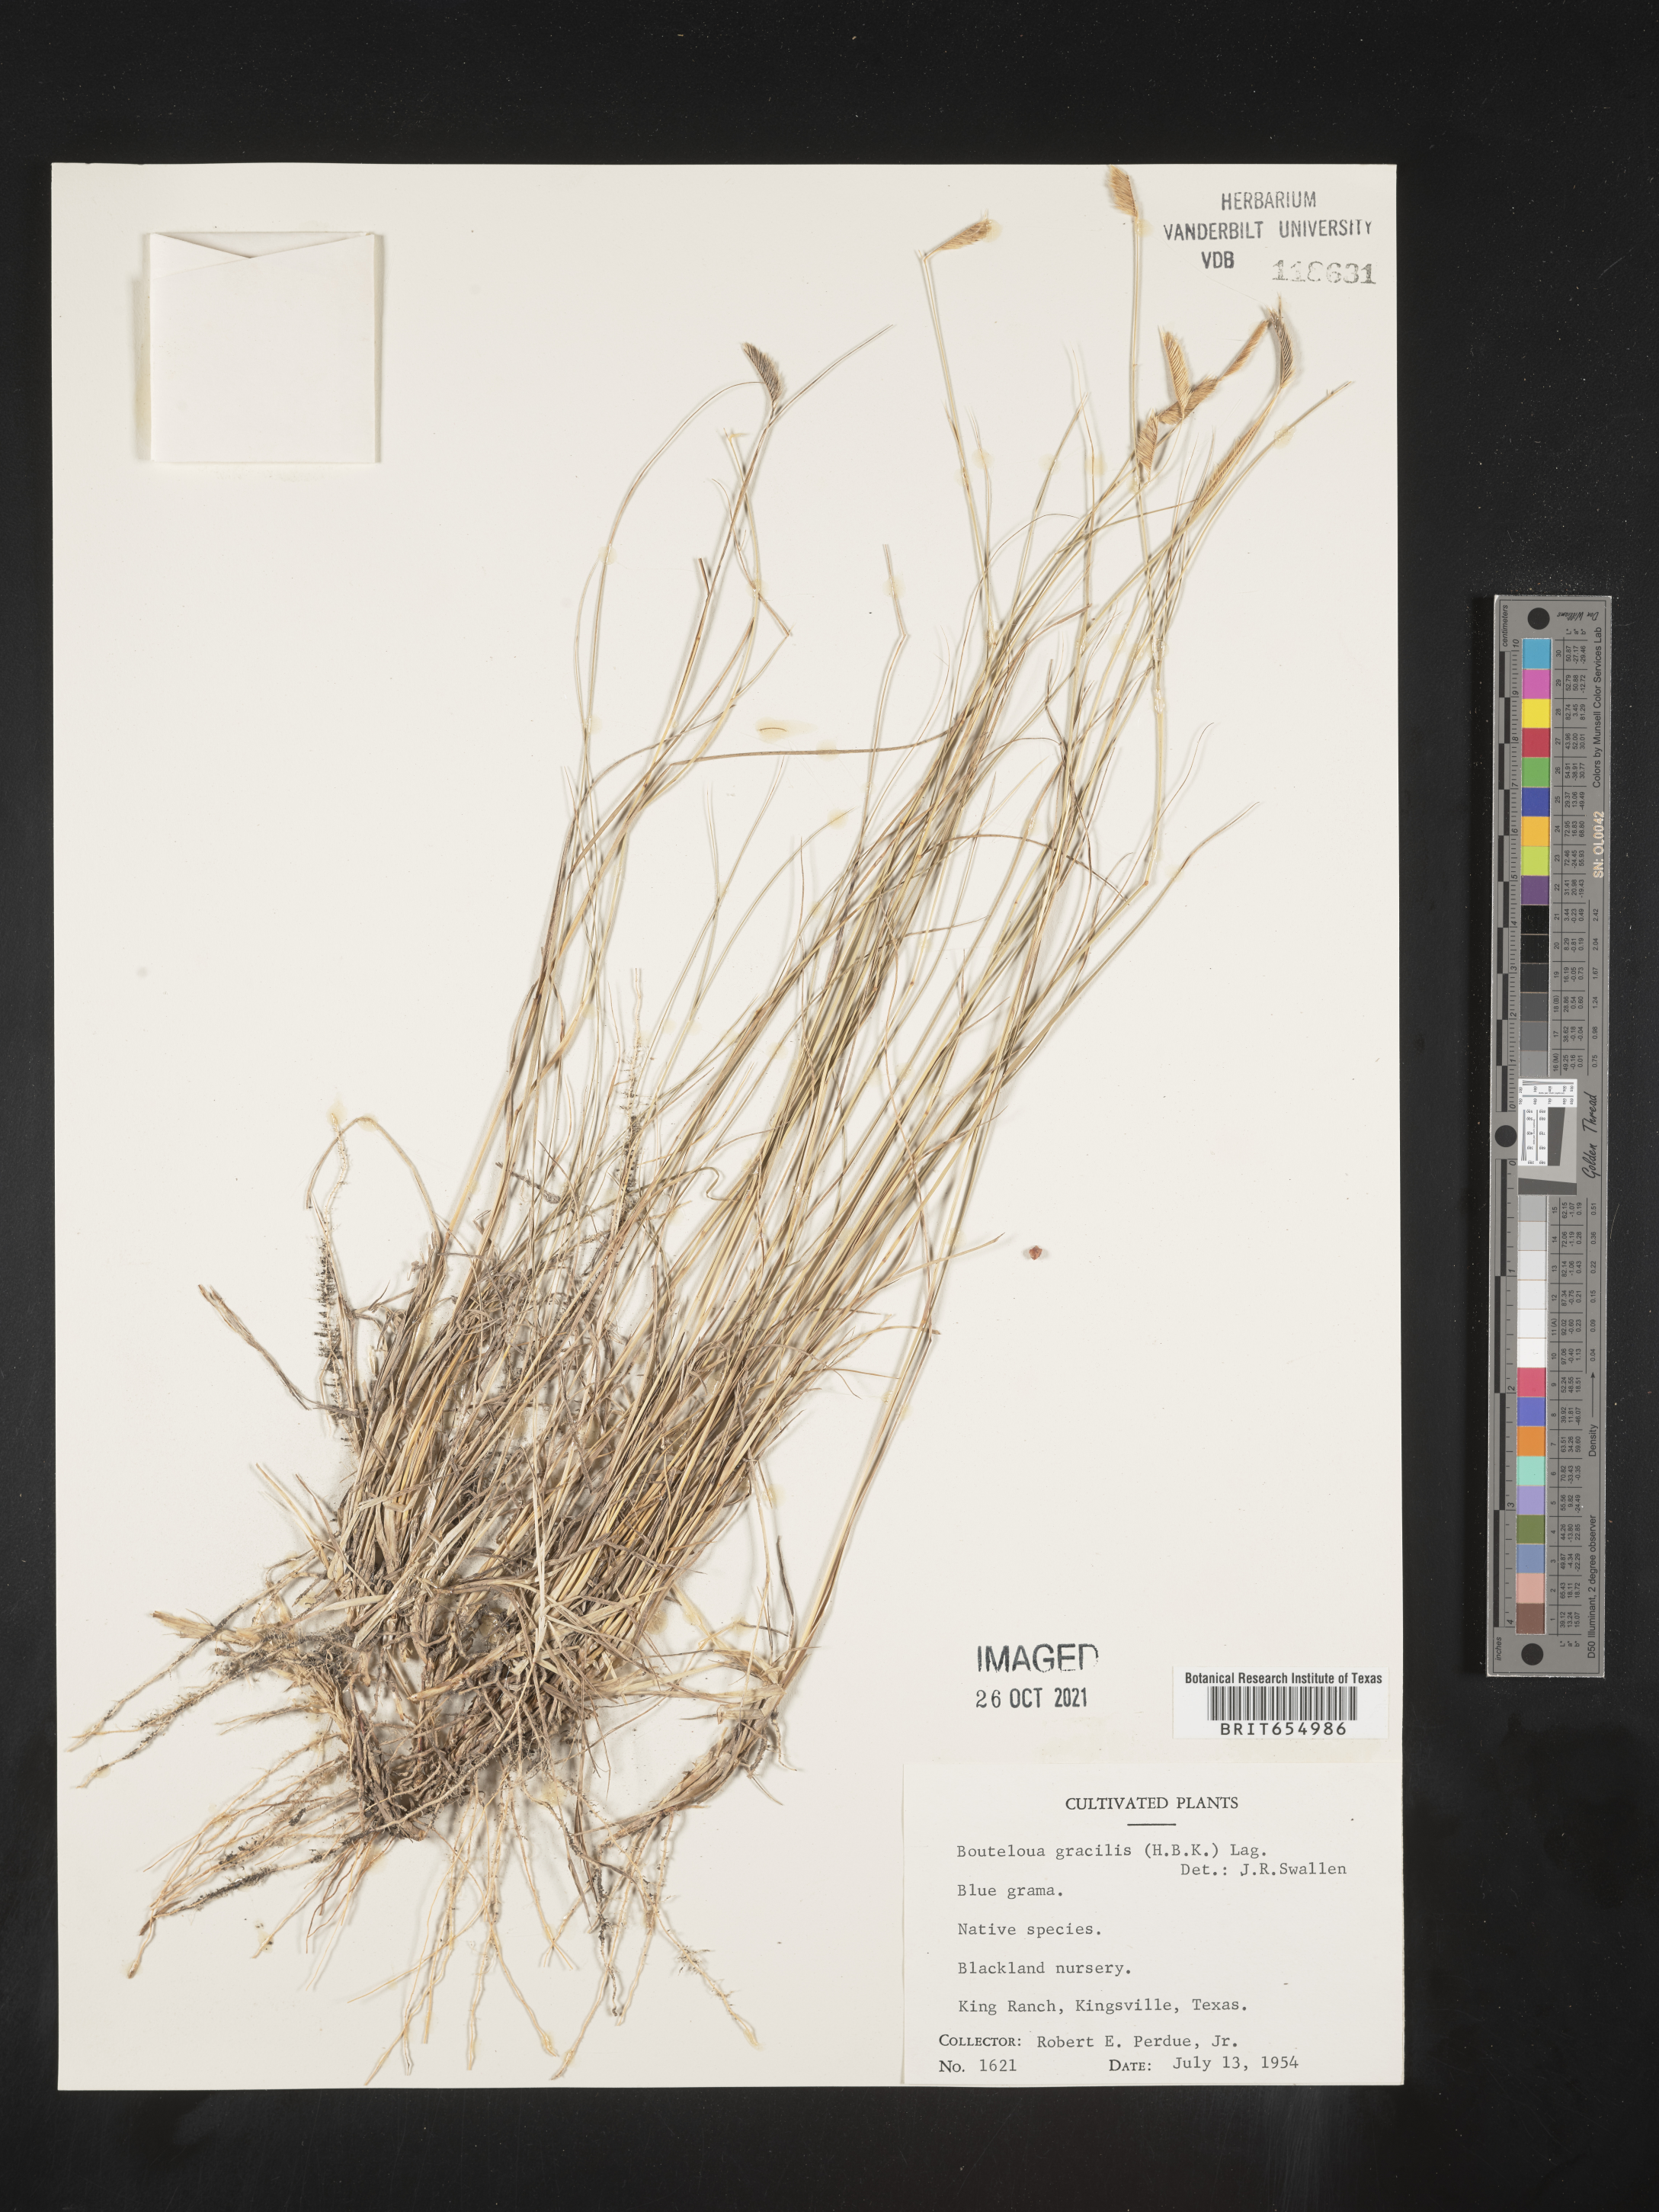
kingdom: Plantae
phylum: Tracheophyta
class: Liliopsida
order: Poales
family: Poaceae
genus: Bouteloua
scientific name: Bouteloua
